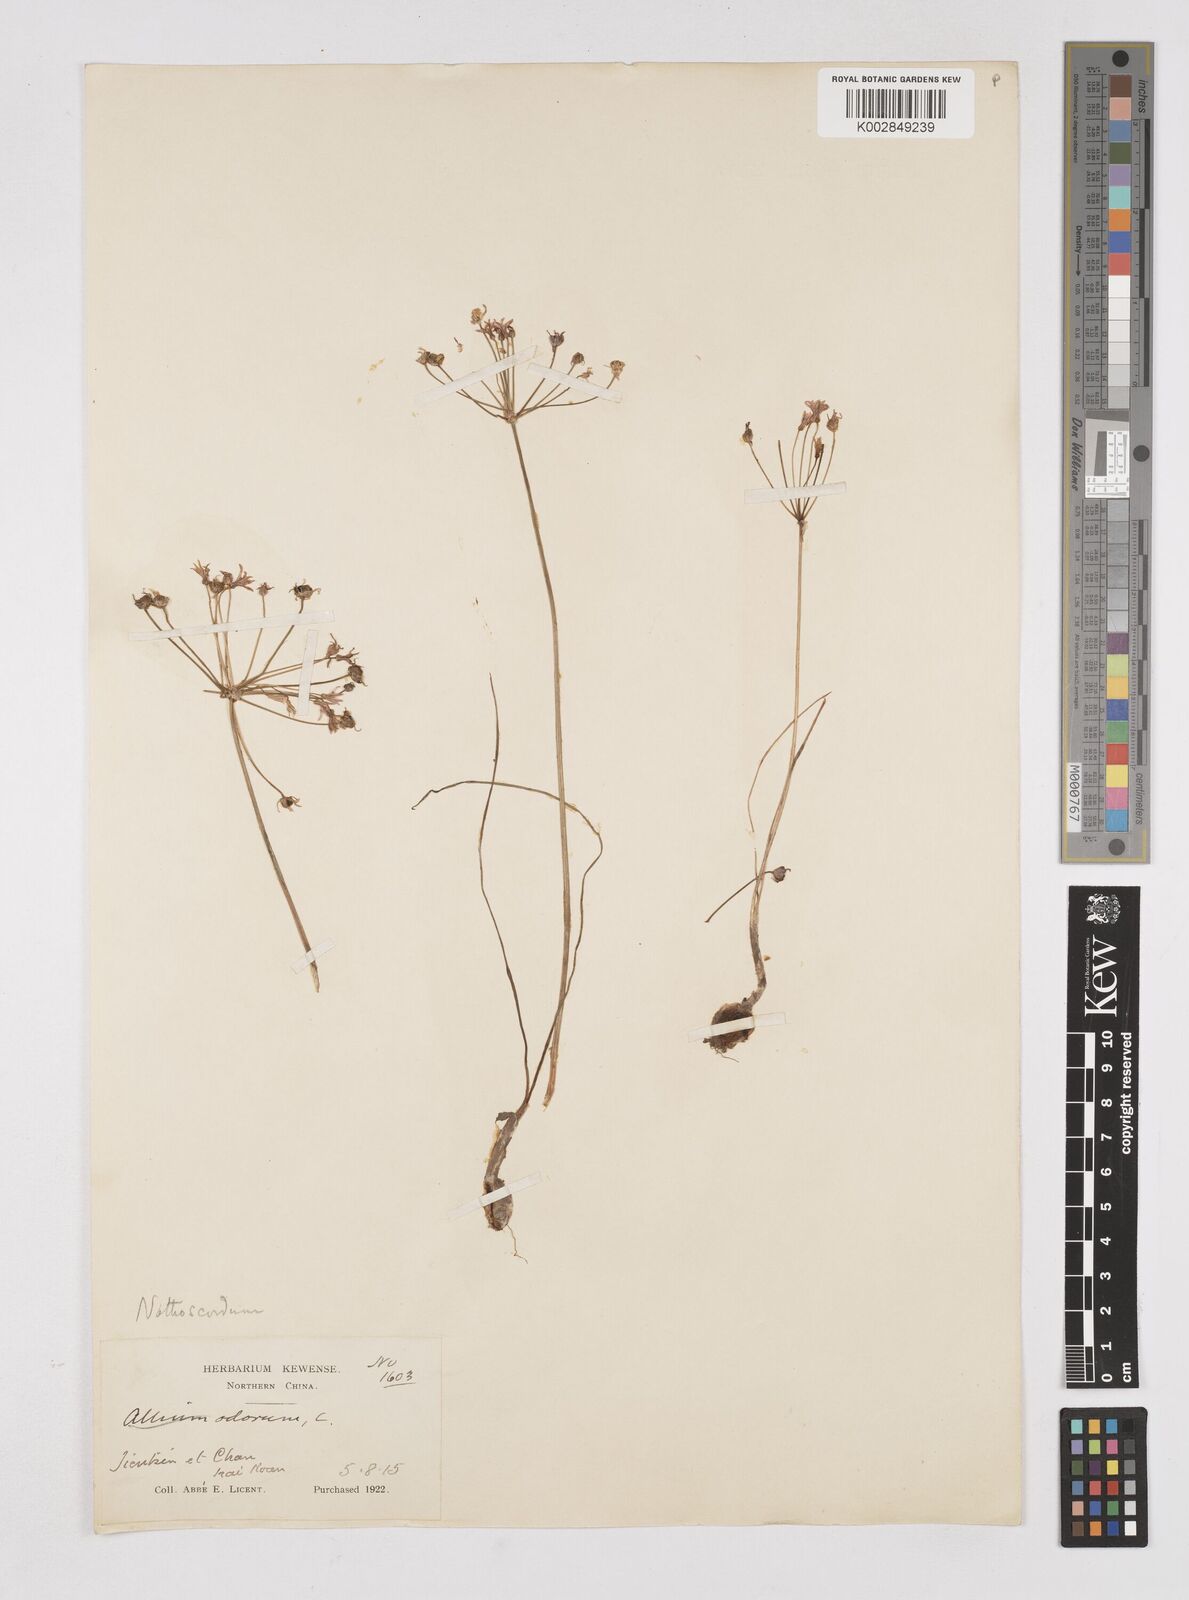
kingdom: Plantae
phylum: Tracheophyta
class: Liliopsida
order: Liliales
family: Liliaceae
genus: Agapanthus
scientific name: Agapanthus
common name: Agapanthus
